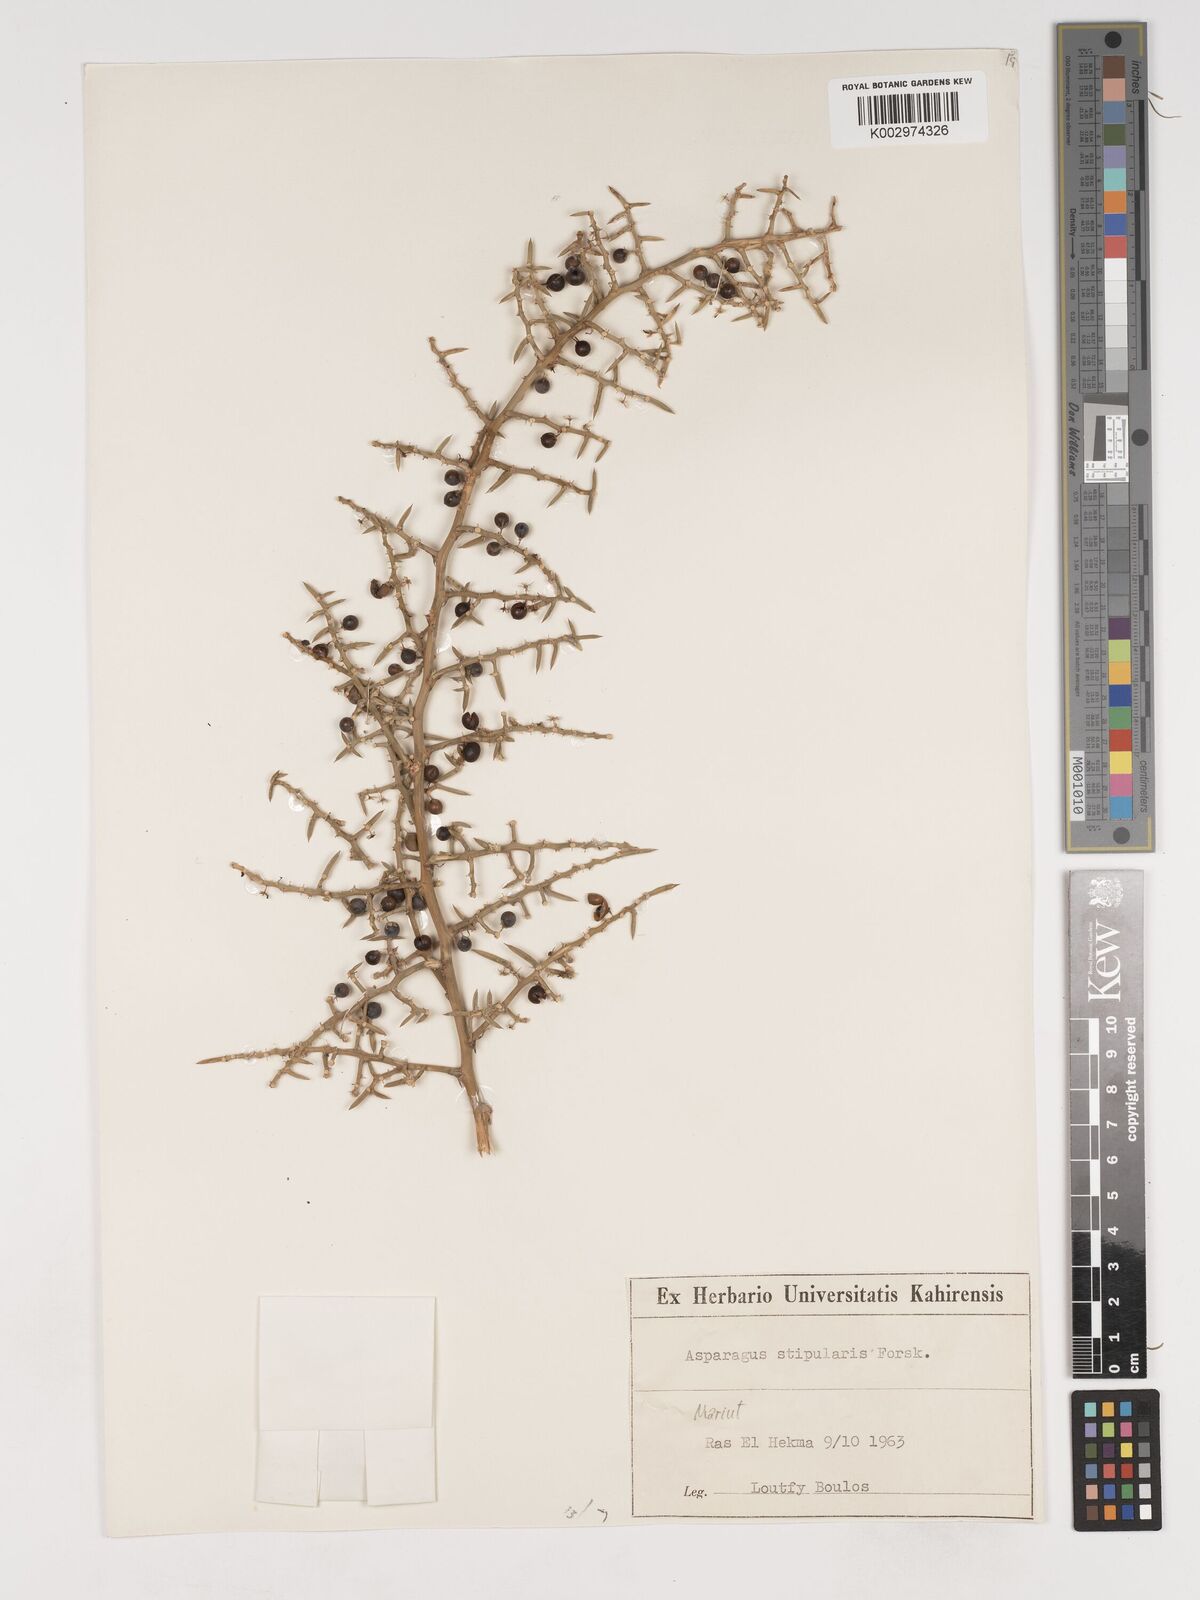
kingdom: Plantae
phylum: Tracheophyta
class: Liliopsida
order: Asparagales
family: Asparagaceae
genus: Asparagus
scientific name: Asparagus aphyllus
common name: Mediterranean asparagus
